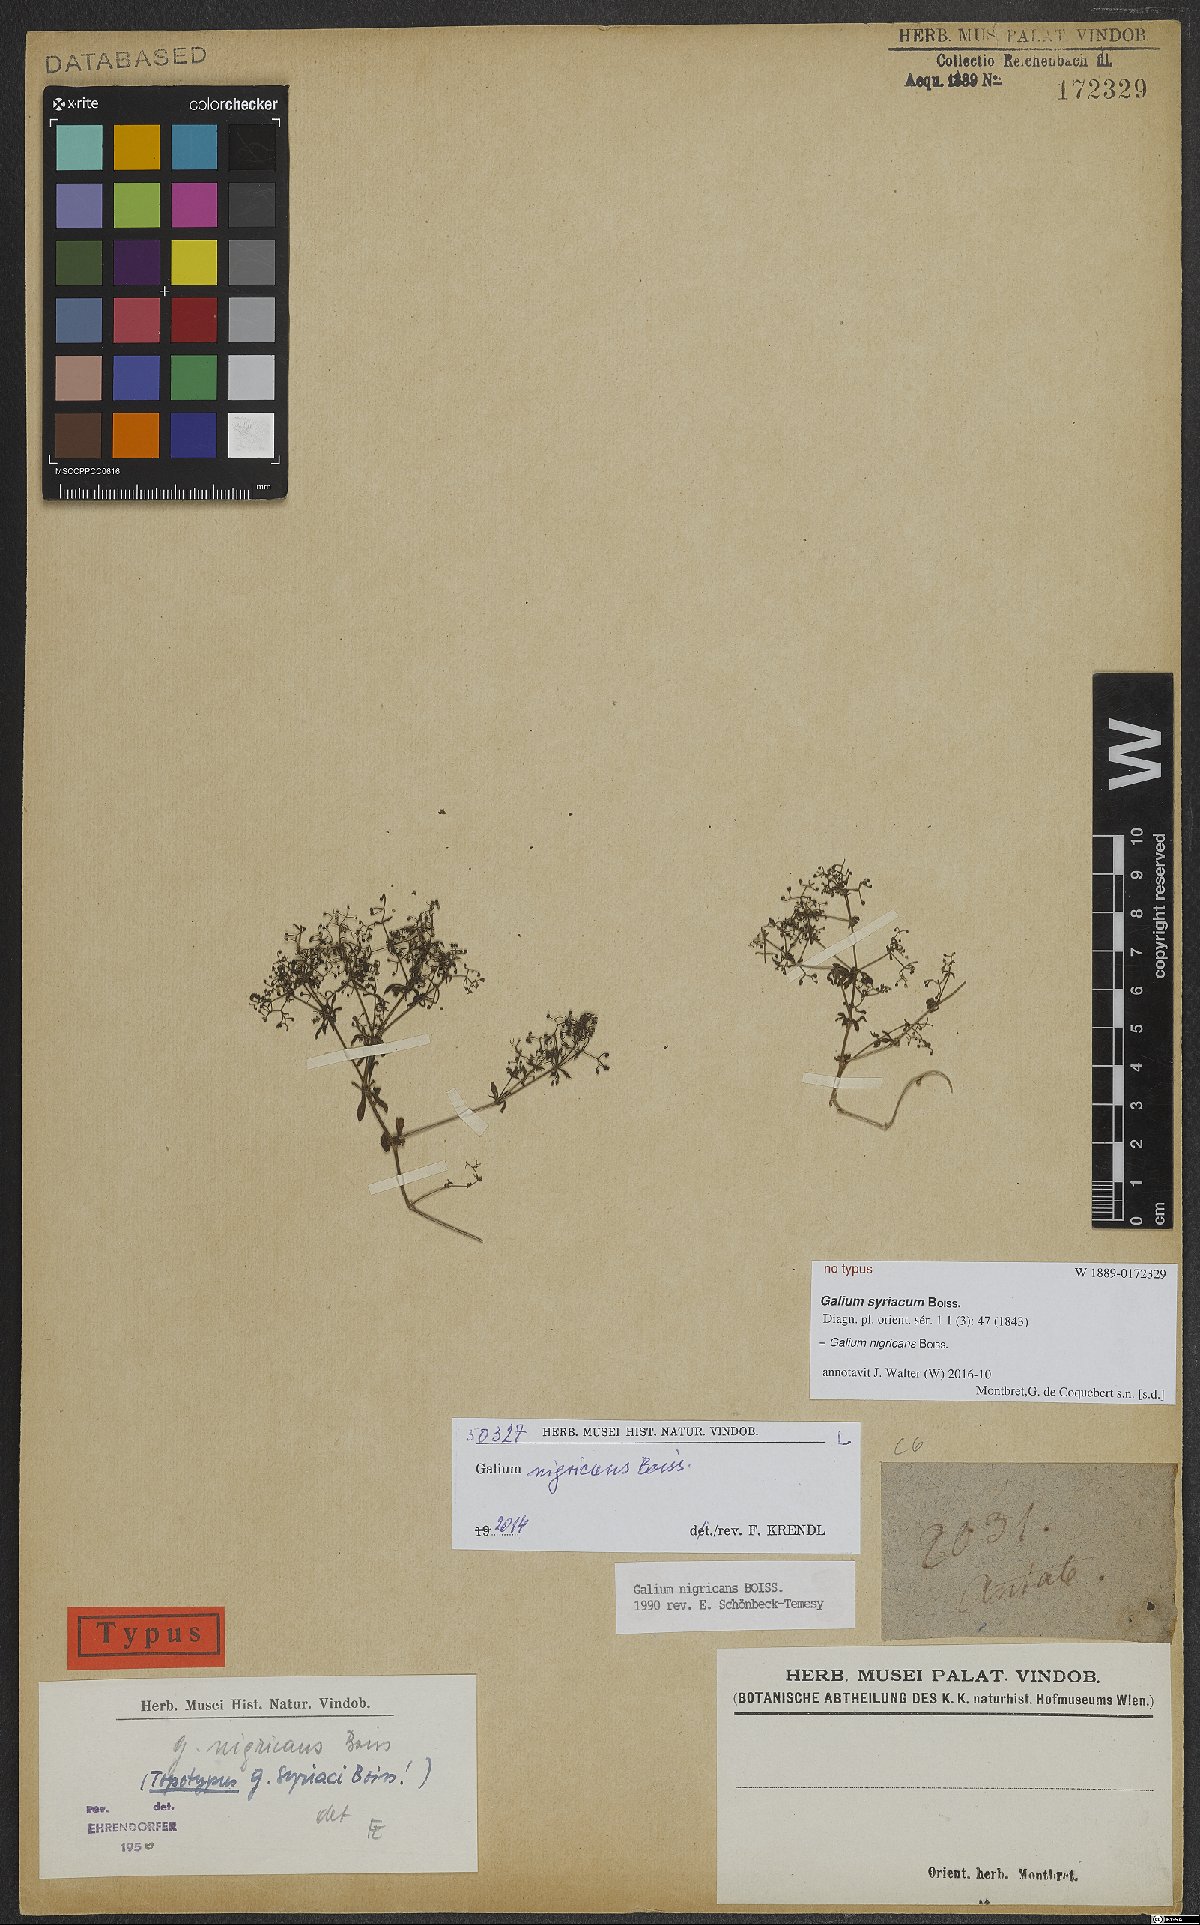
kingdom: Plantae
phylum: Tracheophyta
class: Magnoliopsida
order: Gentianales
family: Rubiaceae
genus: Galium
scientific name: Galium nigricans
